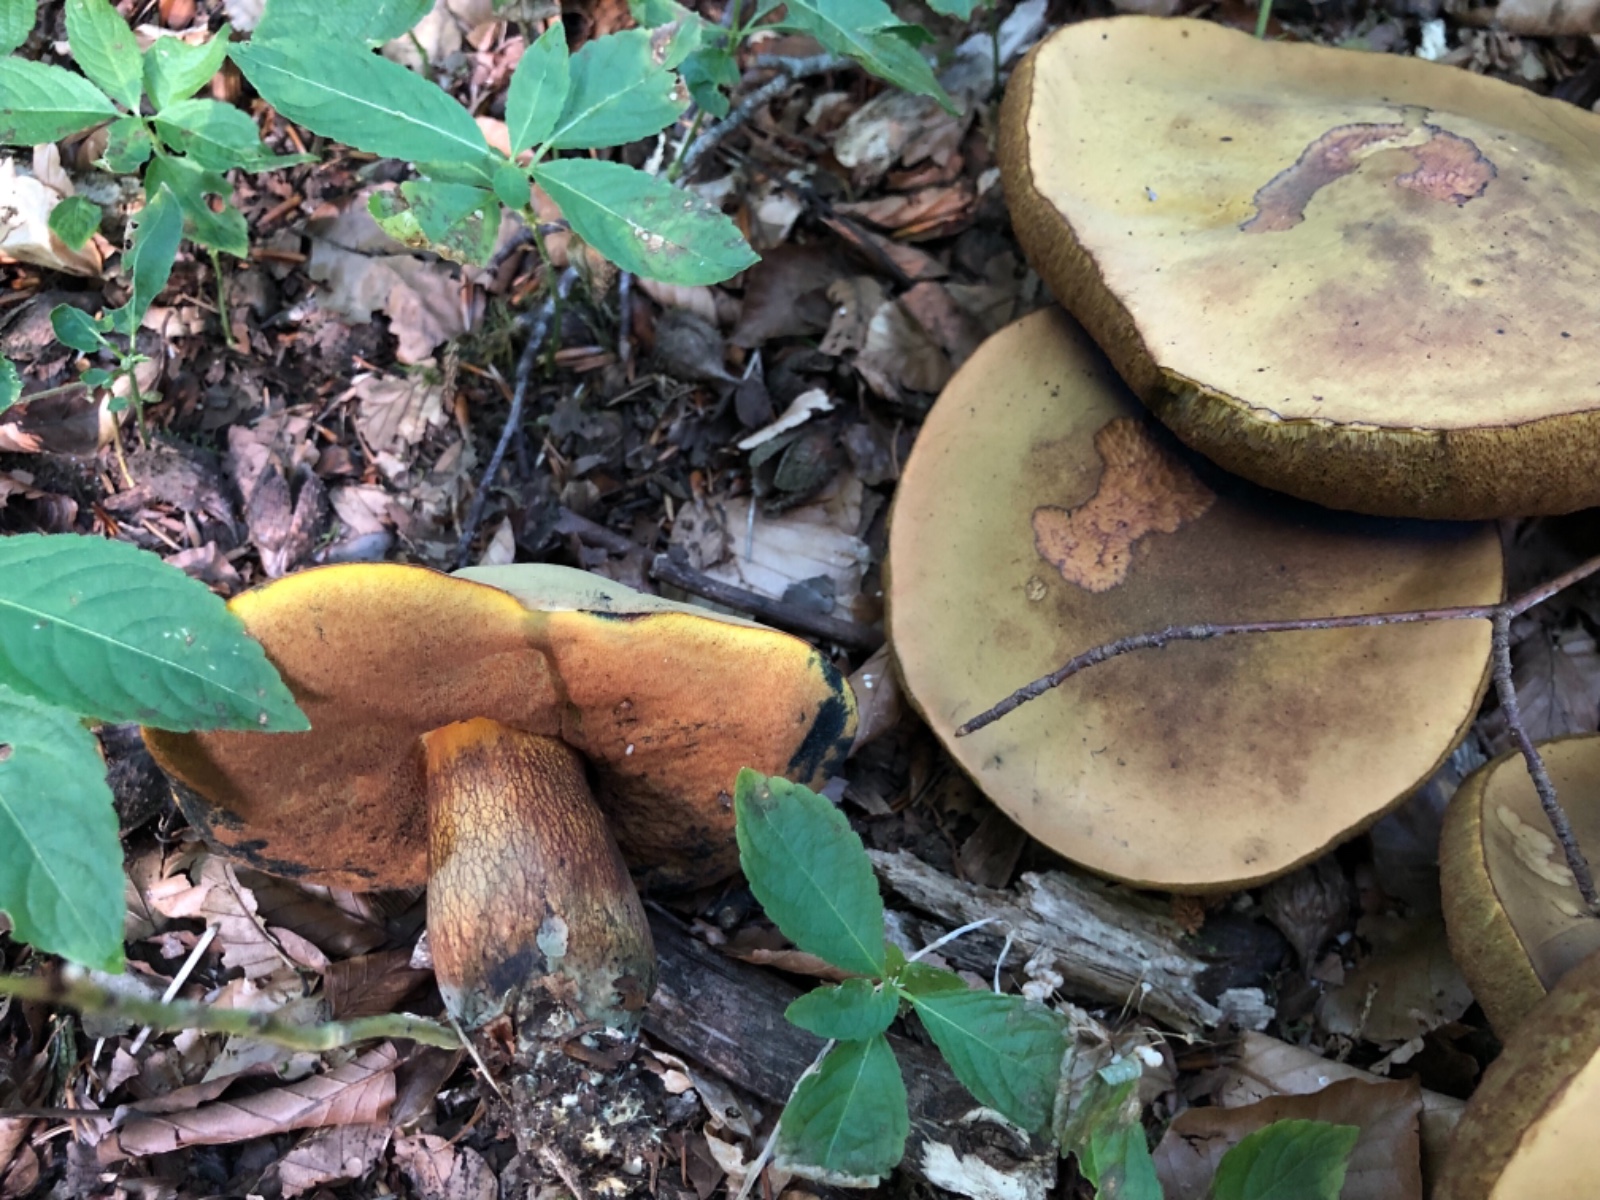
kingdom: Fungi
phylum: Basidiomycota
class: Agaricomycetes
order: Boletales
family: Boletaceae
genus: Suillellus
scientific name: Suillellus luridus
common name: netstokket indigorørhat
